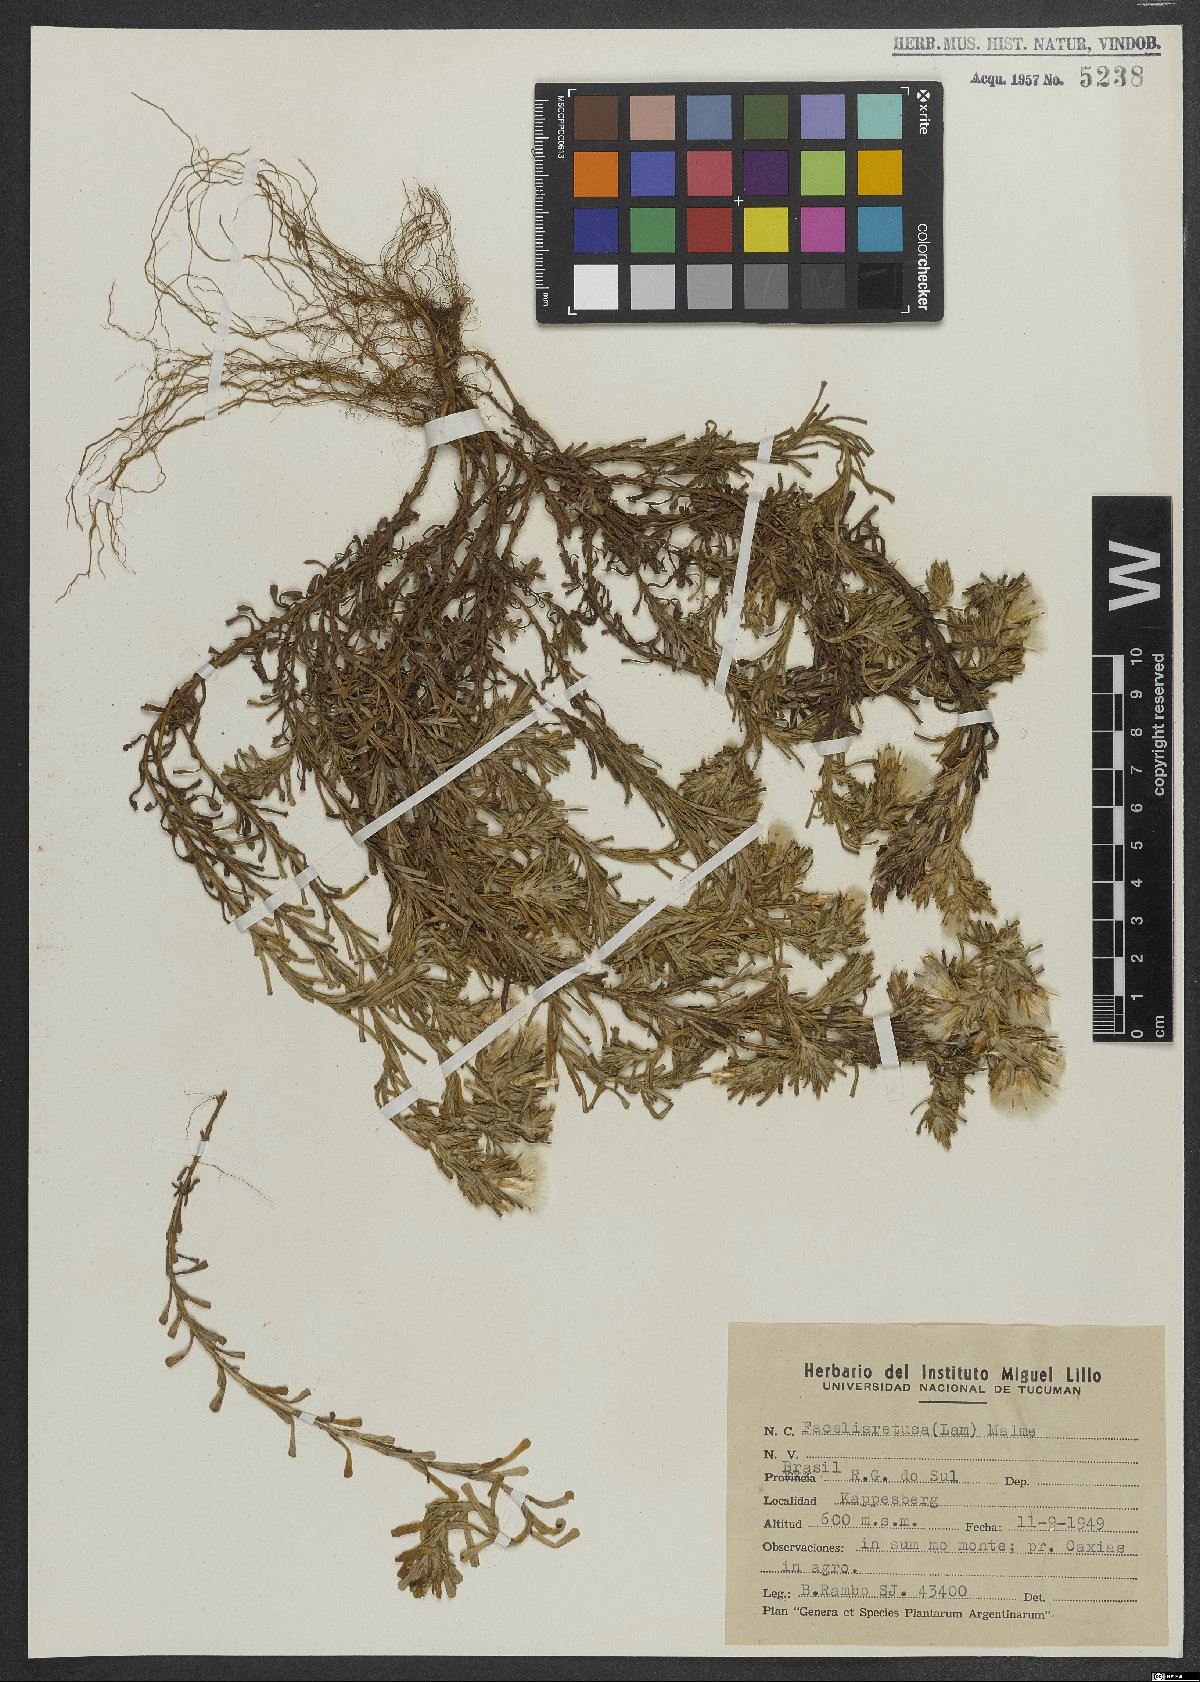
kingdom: Plantae
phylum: Tracheophyta
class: Magnoliopsida
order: Asterales
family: Asteraceae
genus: Facelis
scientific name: Facelis retusa
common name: Annual trampweed
